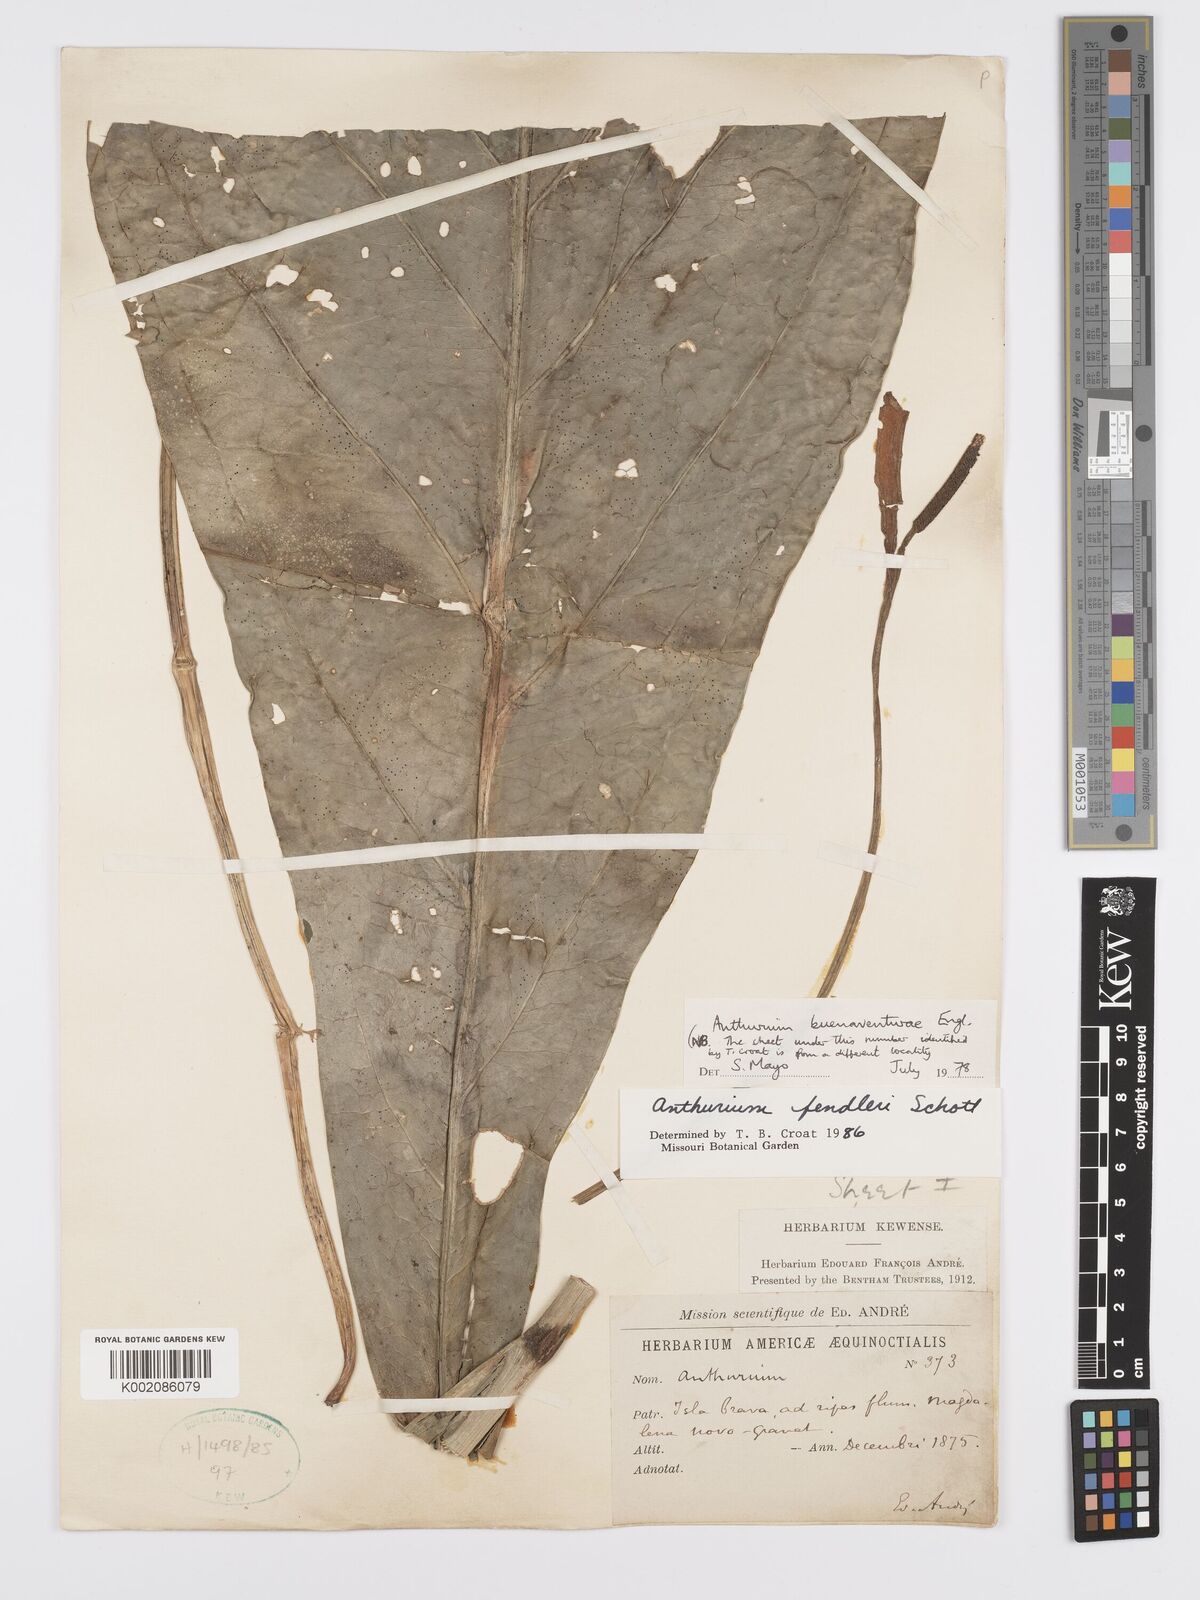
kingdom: Plantae
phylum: Tracheophyta
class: Liliopsida
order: Alismatales
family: Araceae
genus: Anthurium
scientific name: Anthurium fendleri
